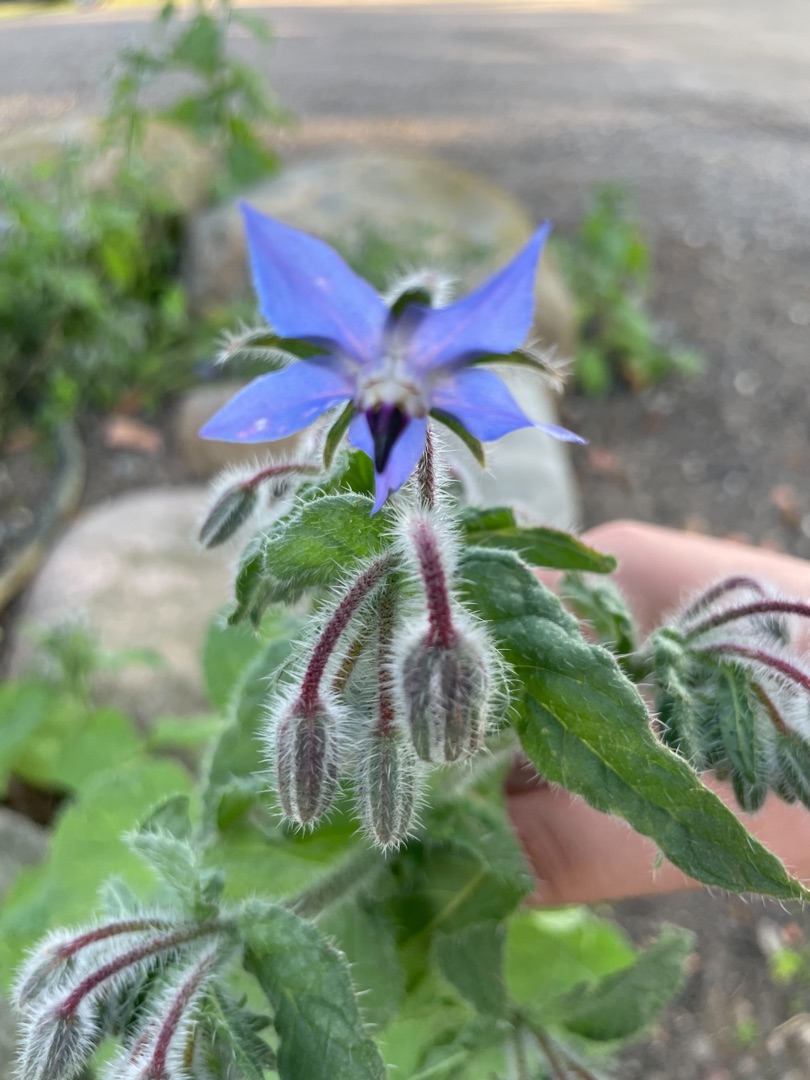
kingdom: Plantae
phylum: Tracheophyta
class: Magnoliopsida
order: Boraginales
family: Boraginaceae
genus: Borago
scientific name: Borago officinalis
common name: Hjulkrone
